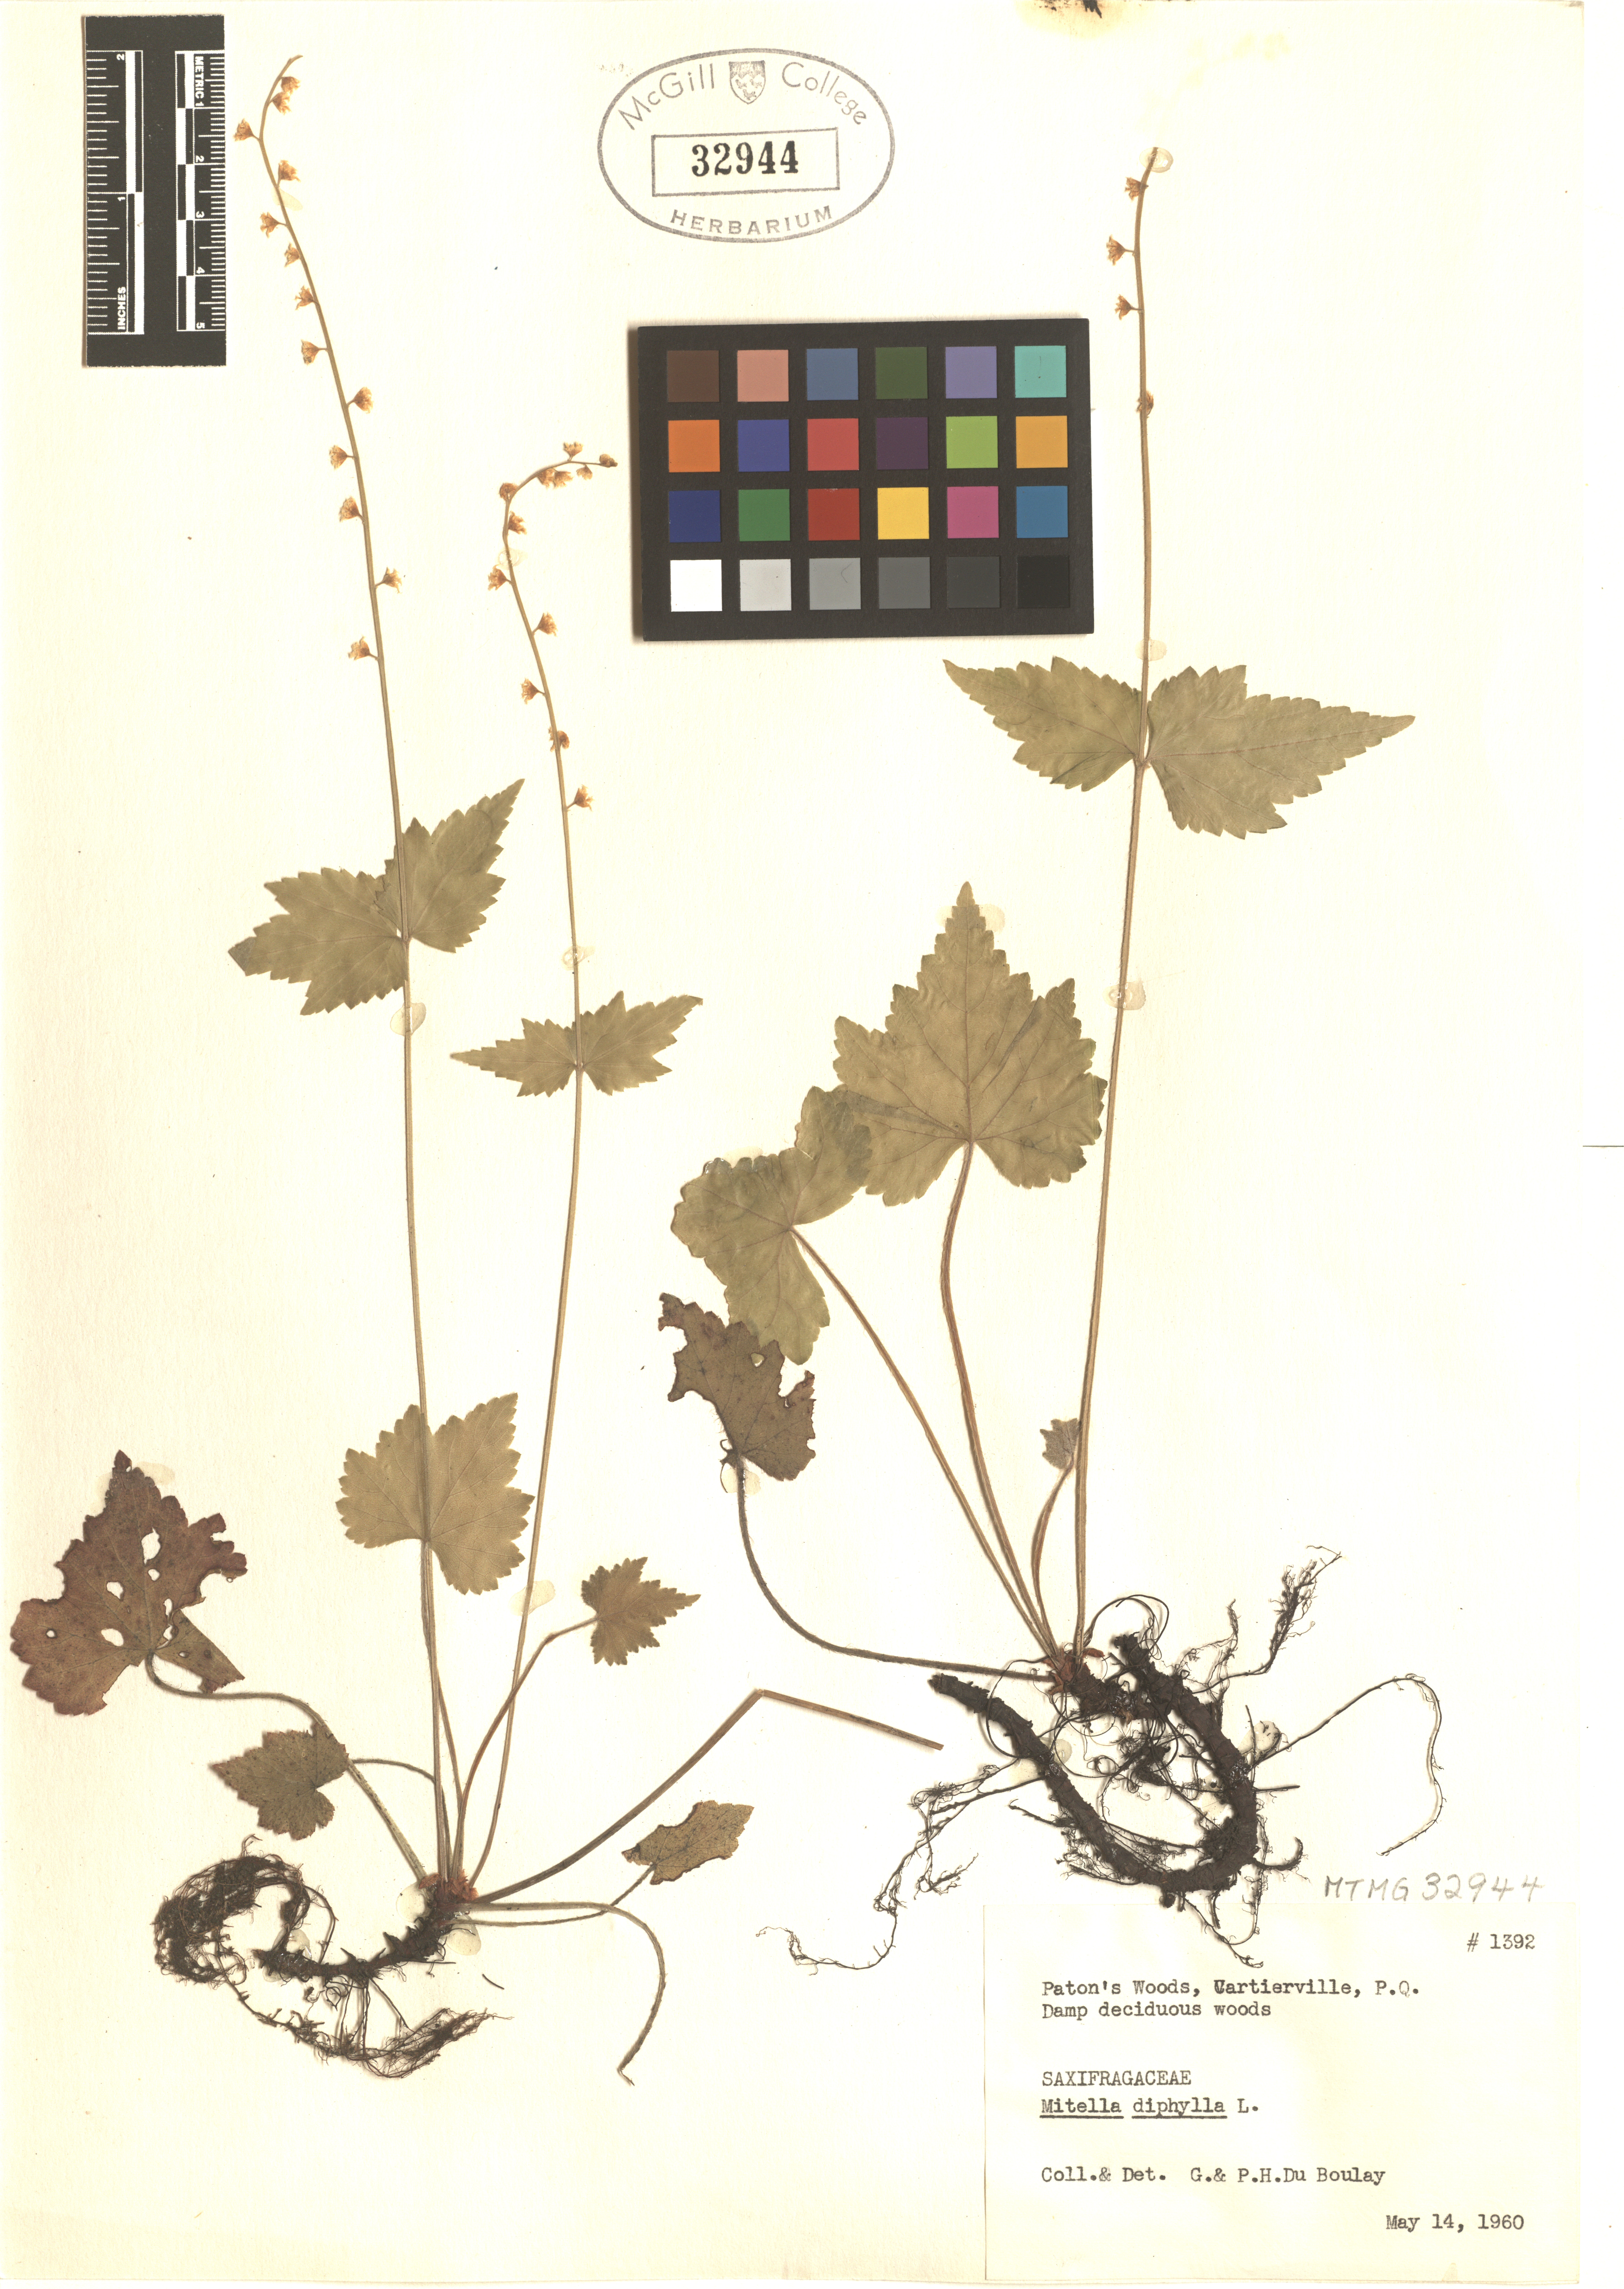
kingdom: Plantae
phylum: Tracheophyta
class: Magnoliopsida
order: Saxifragales
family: Saxifragaceae
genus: Mitella
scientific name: Mitella diphylla
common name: Coolwort
